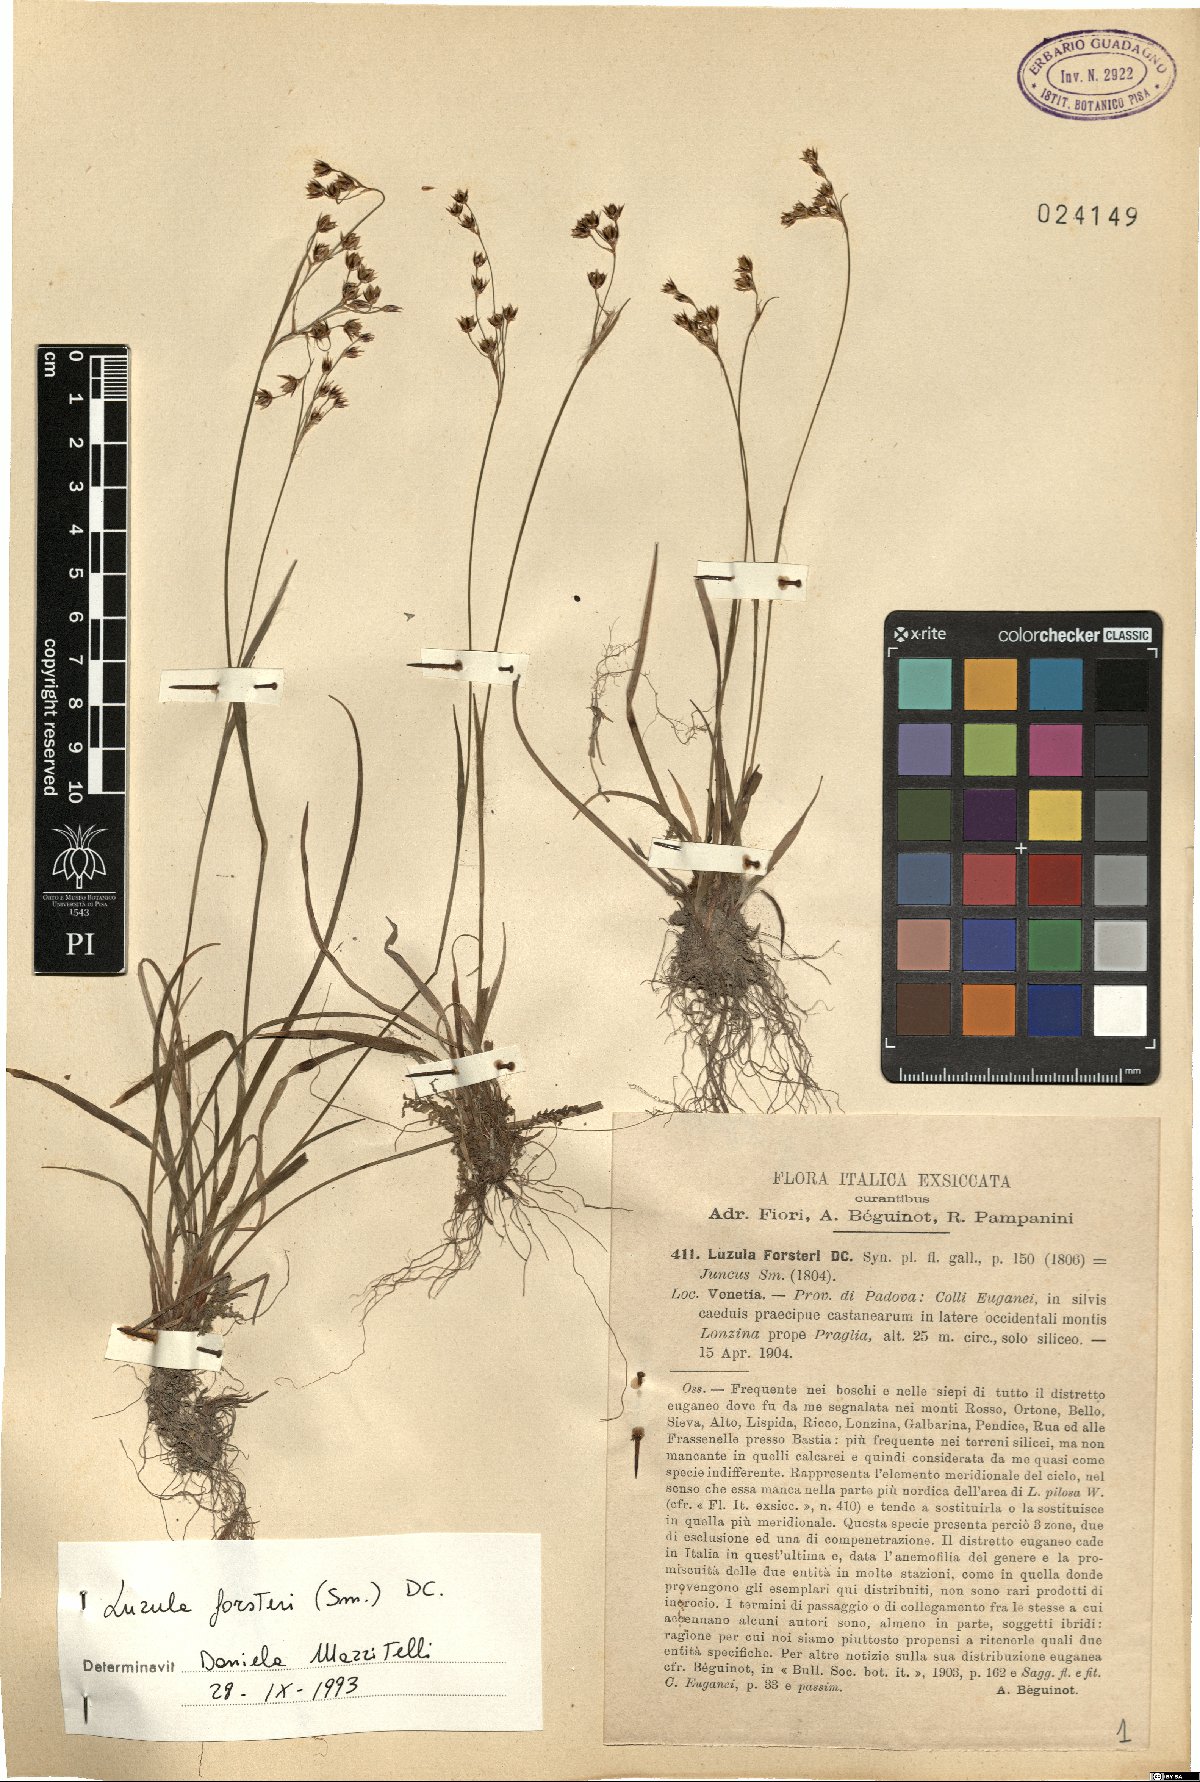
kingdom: Plantae
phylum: Tracheophyta
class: Liliopsida
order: Poales
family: Juncaceae
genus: Luzula
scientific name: Luzula forsteri
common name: Southern wood-rush
